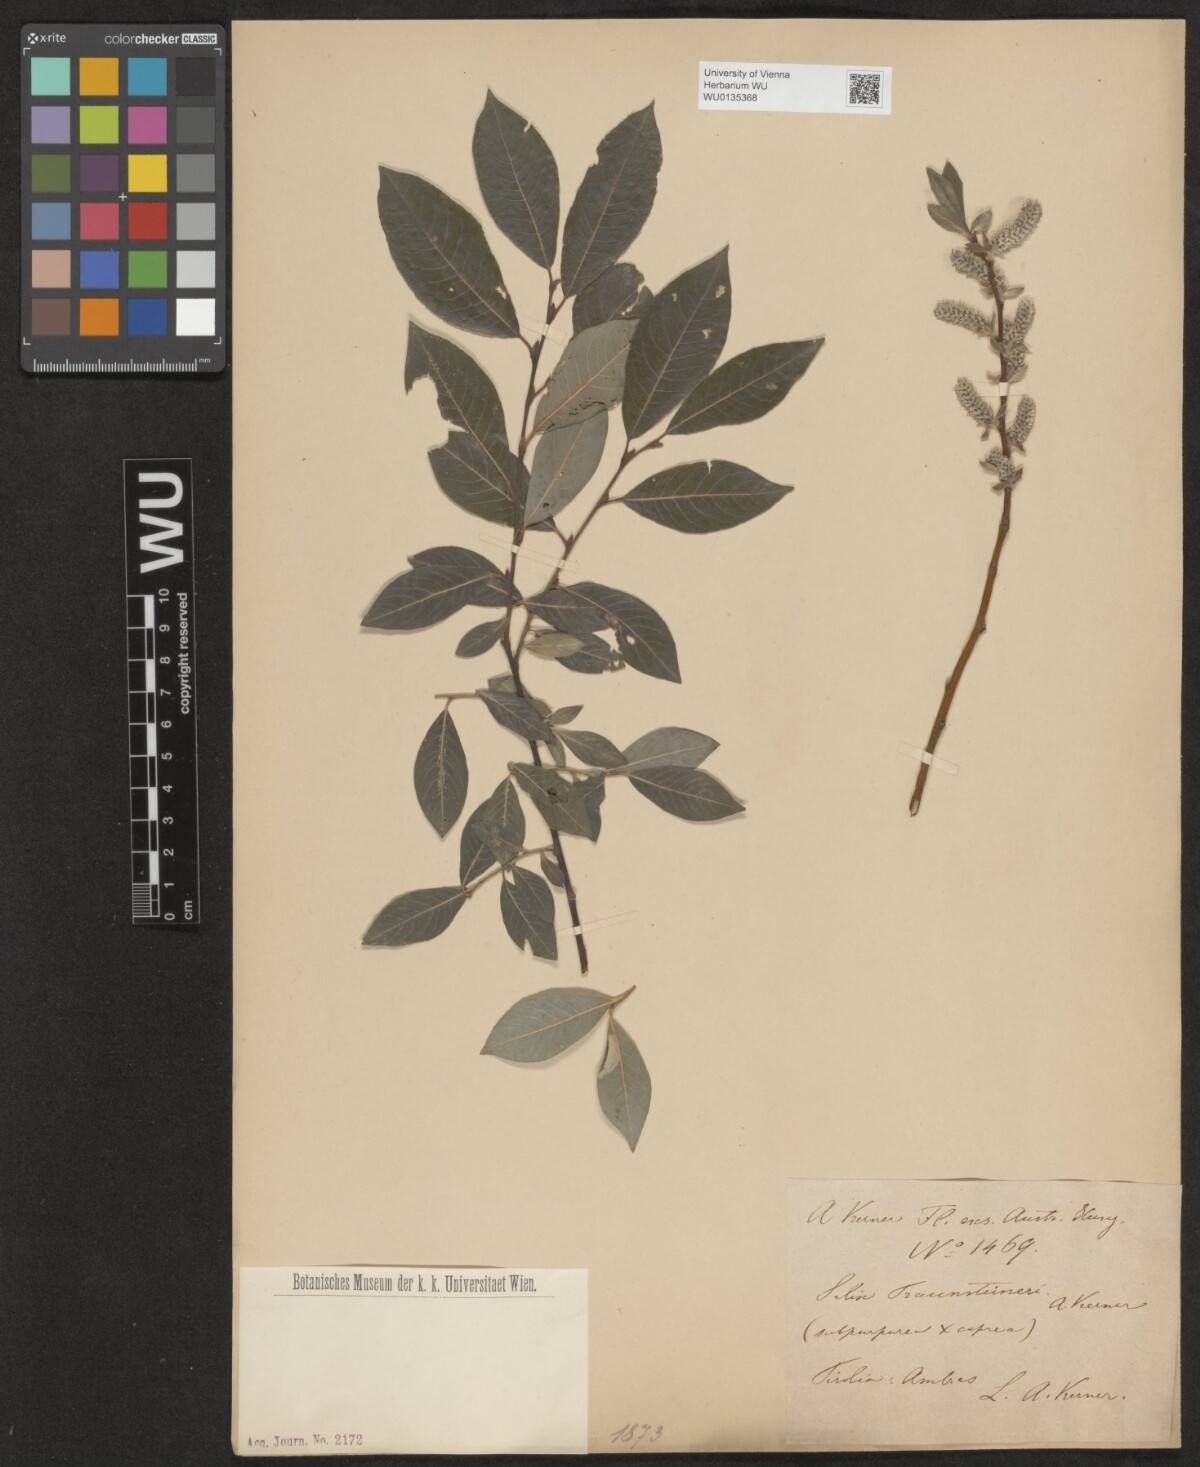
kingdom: Plantae
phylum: Tracheophyta
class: Magnoliopsida
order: Malpighiales
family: Salicaceae
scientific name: Salicaceae
